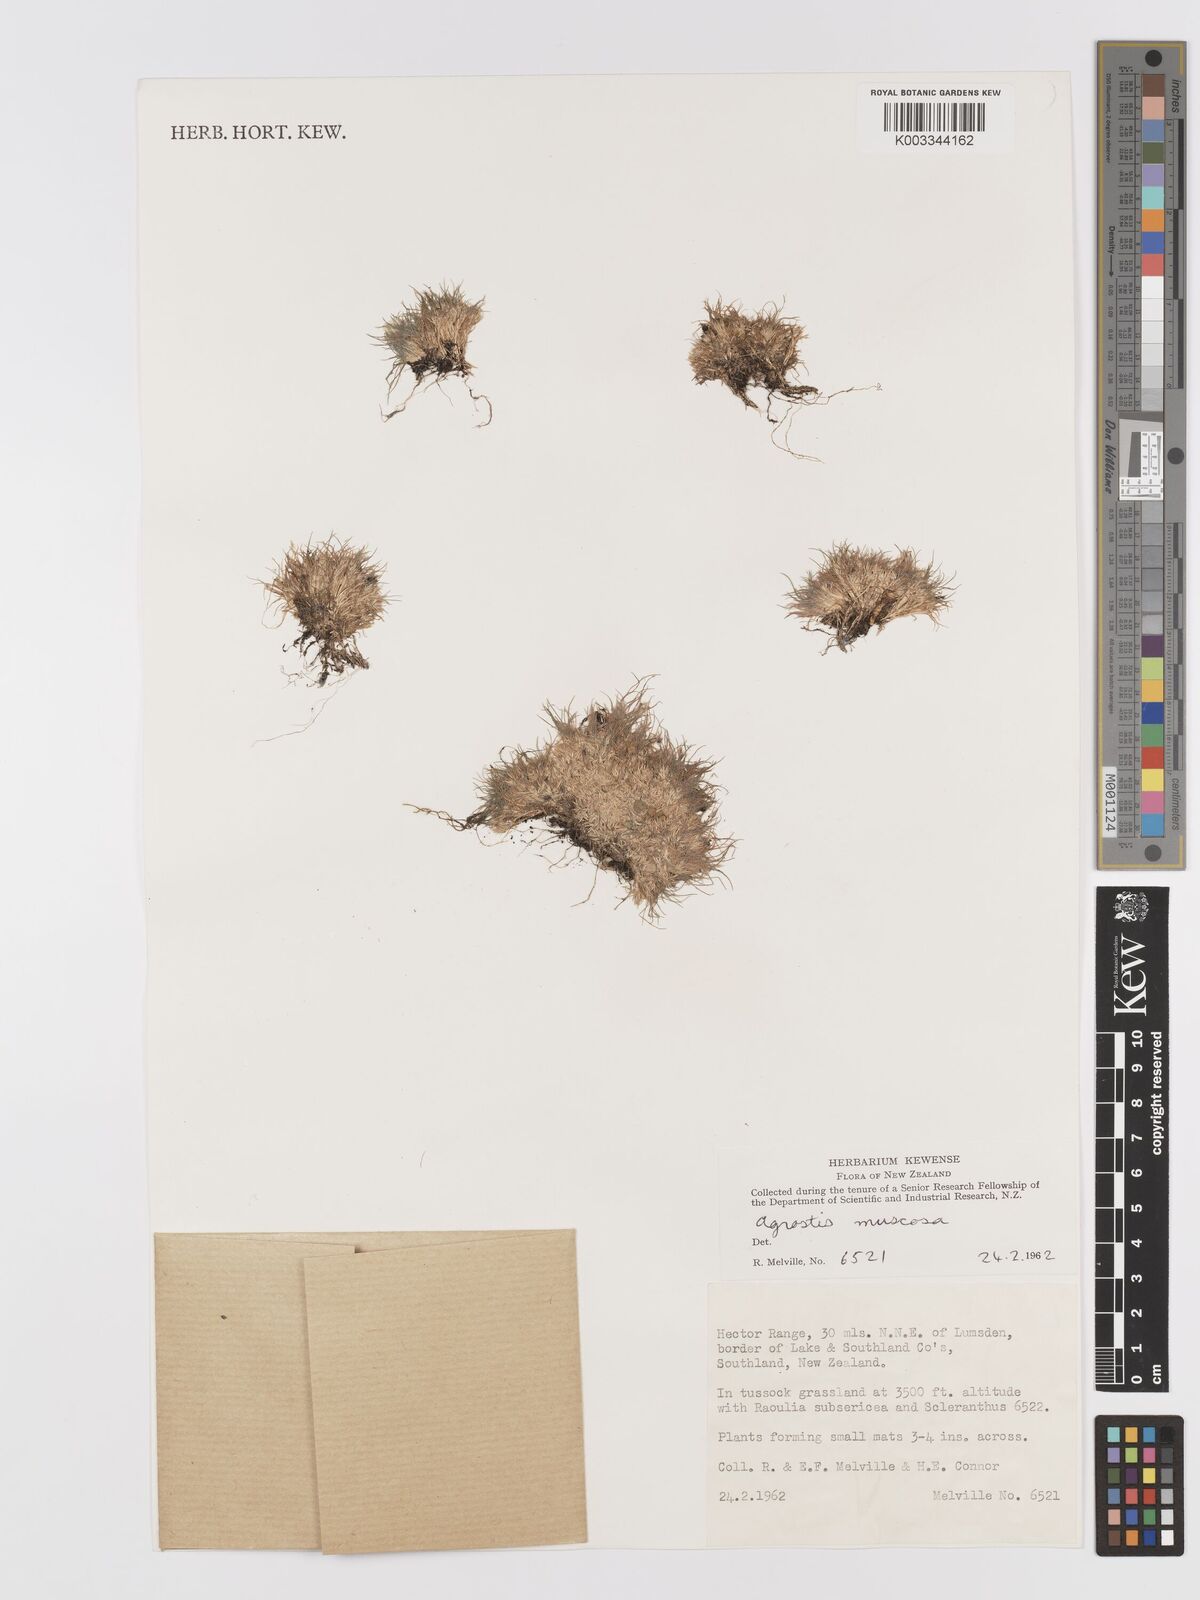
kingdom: Plantae
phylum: Tracheophyta
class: Liliopsida
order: Poales
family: Poaceae
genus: Agrostis
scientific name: Agrostis muscosa
